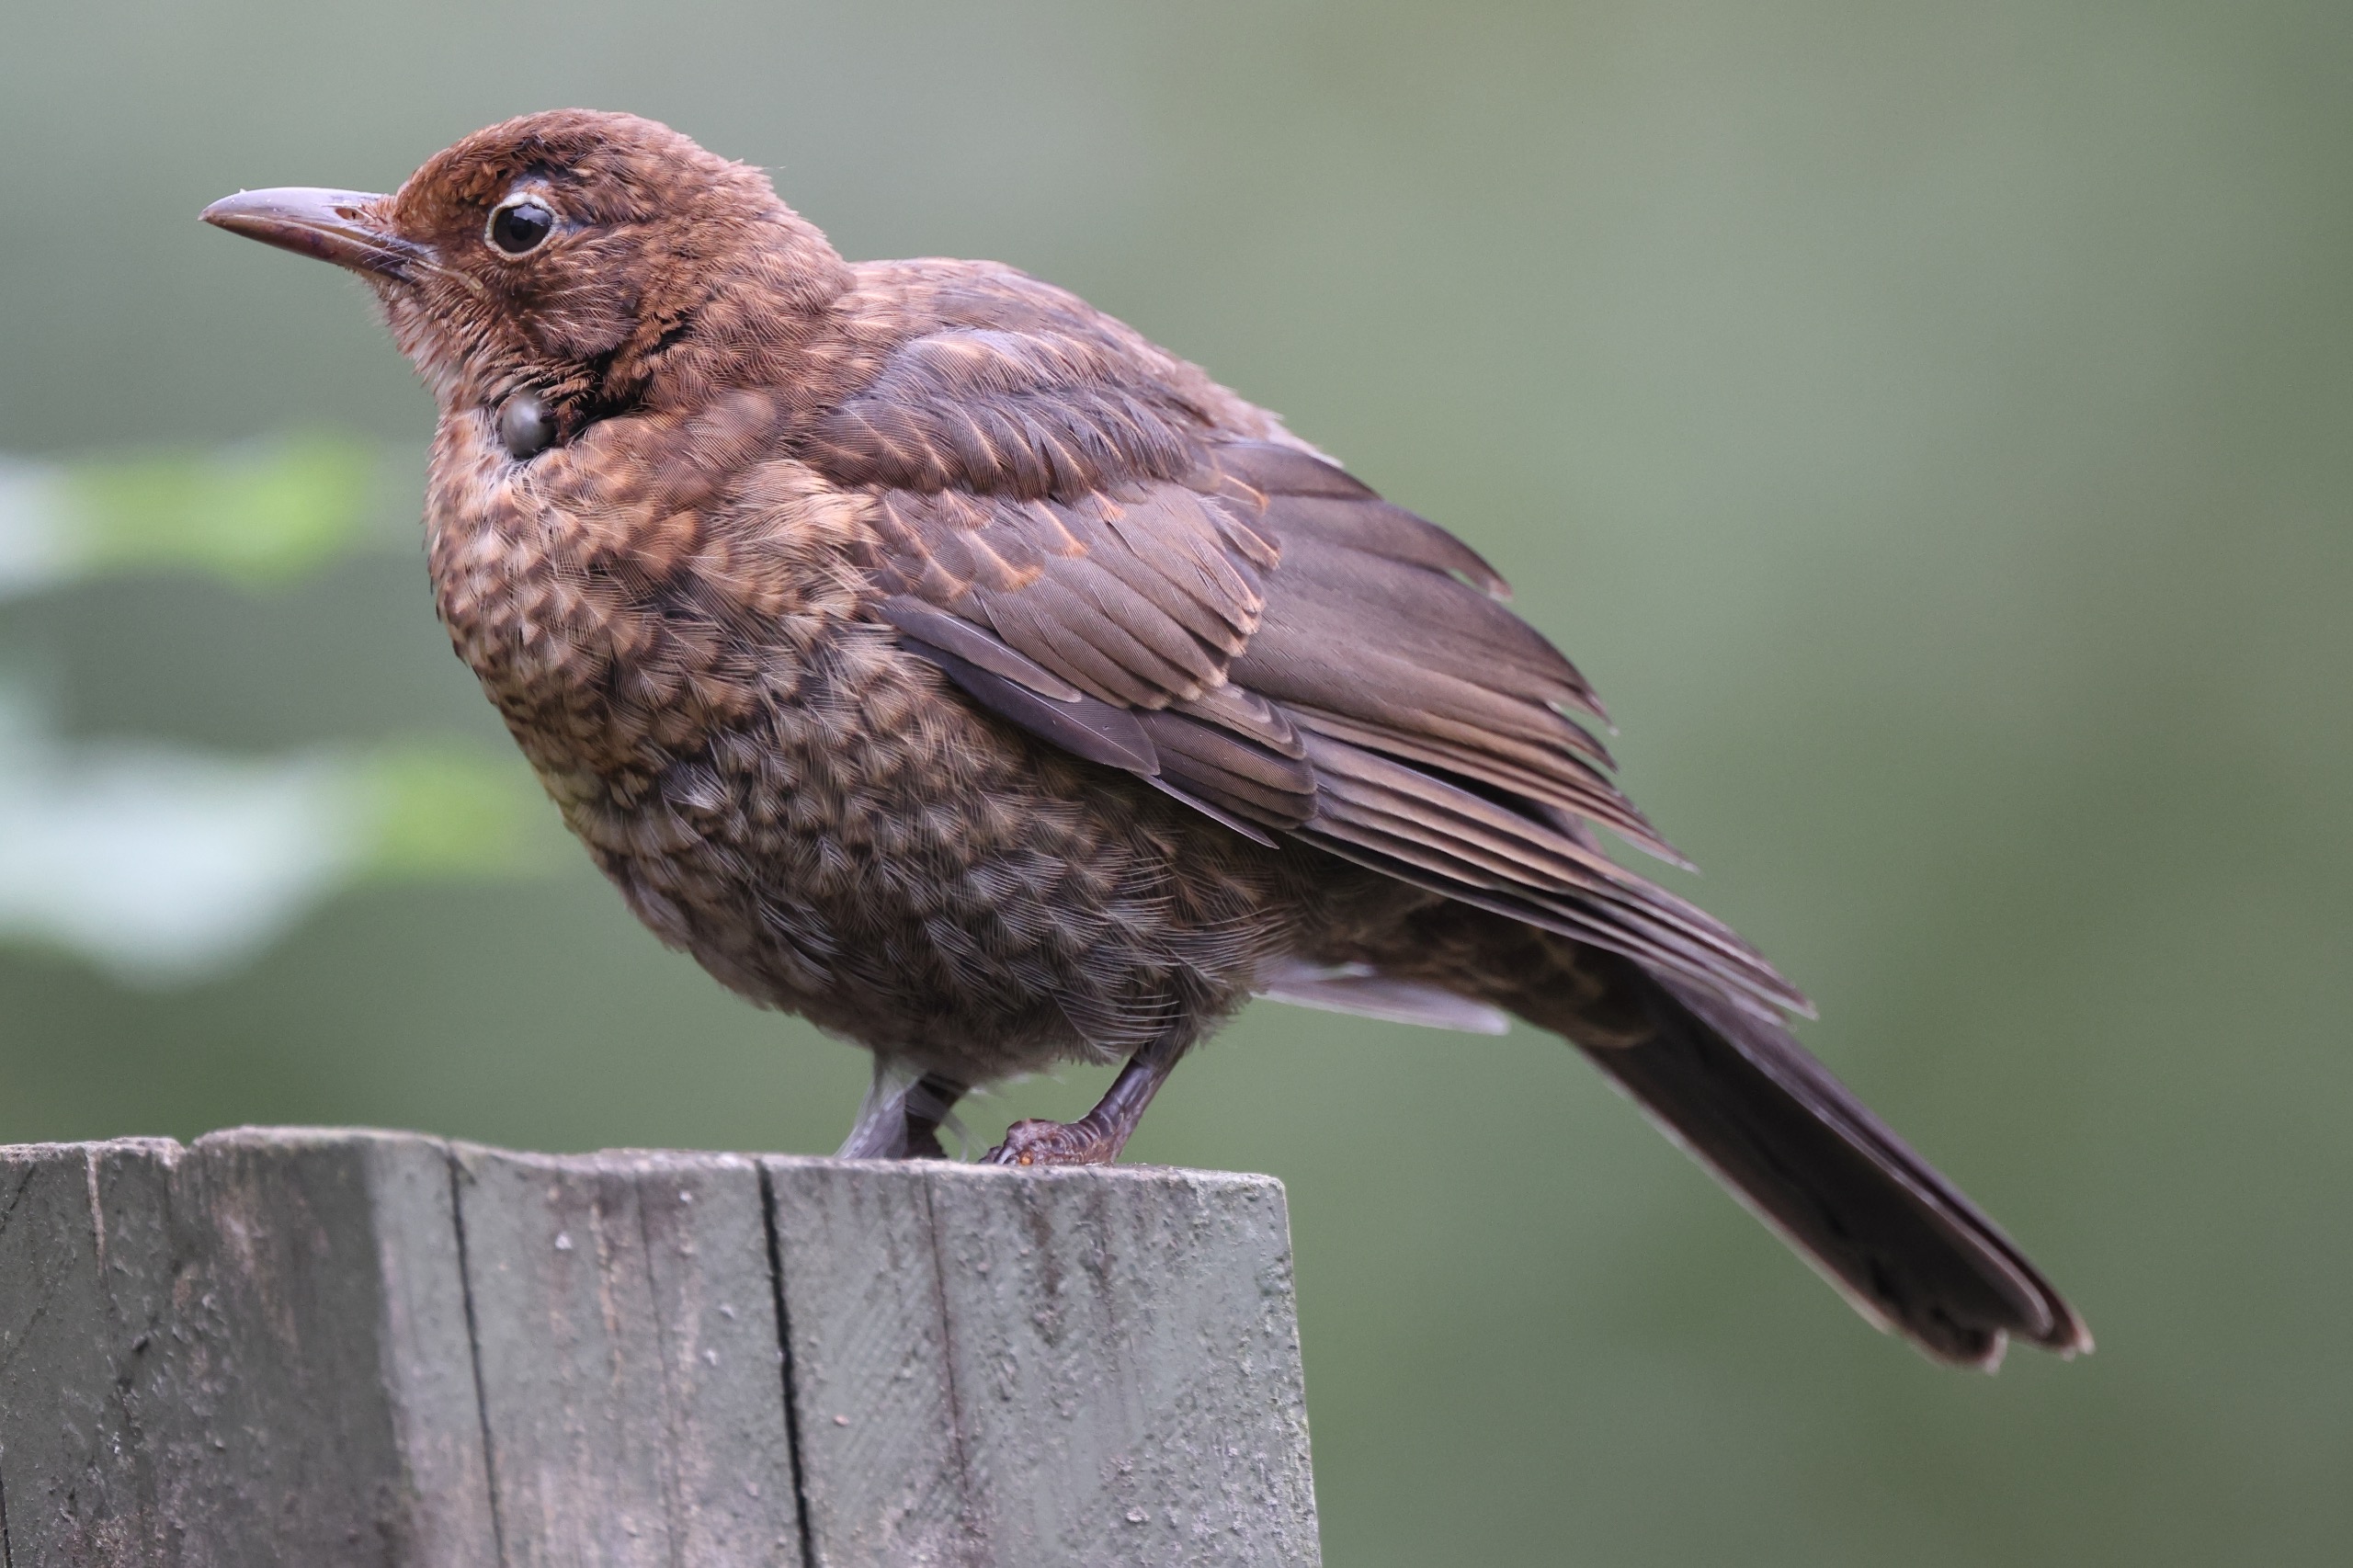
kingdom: Animalia
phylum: Chordata
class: Aves
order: Passeriformes
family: Turdidae
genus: Turdus
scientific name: Turdus merula
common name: Solsort
